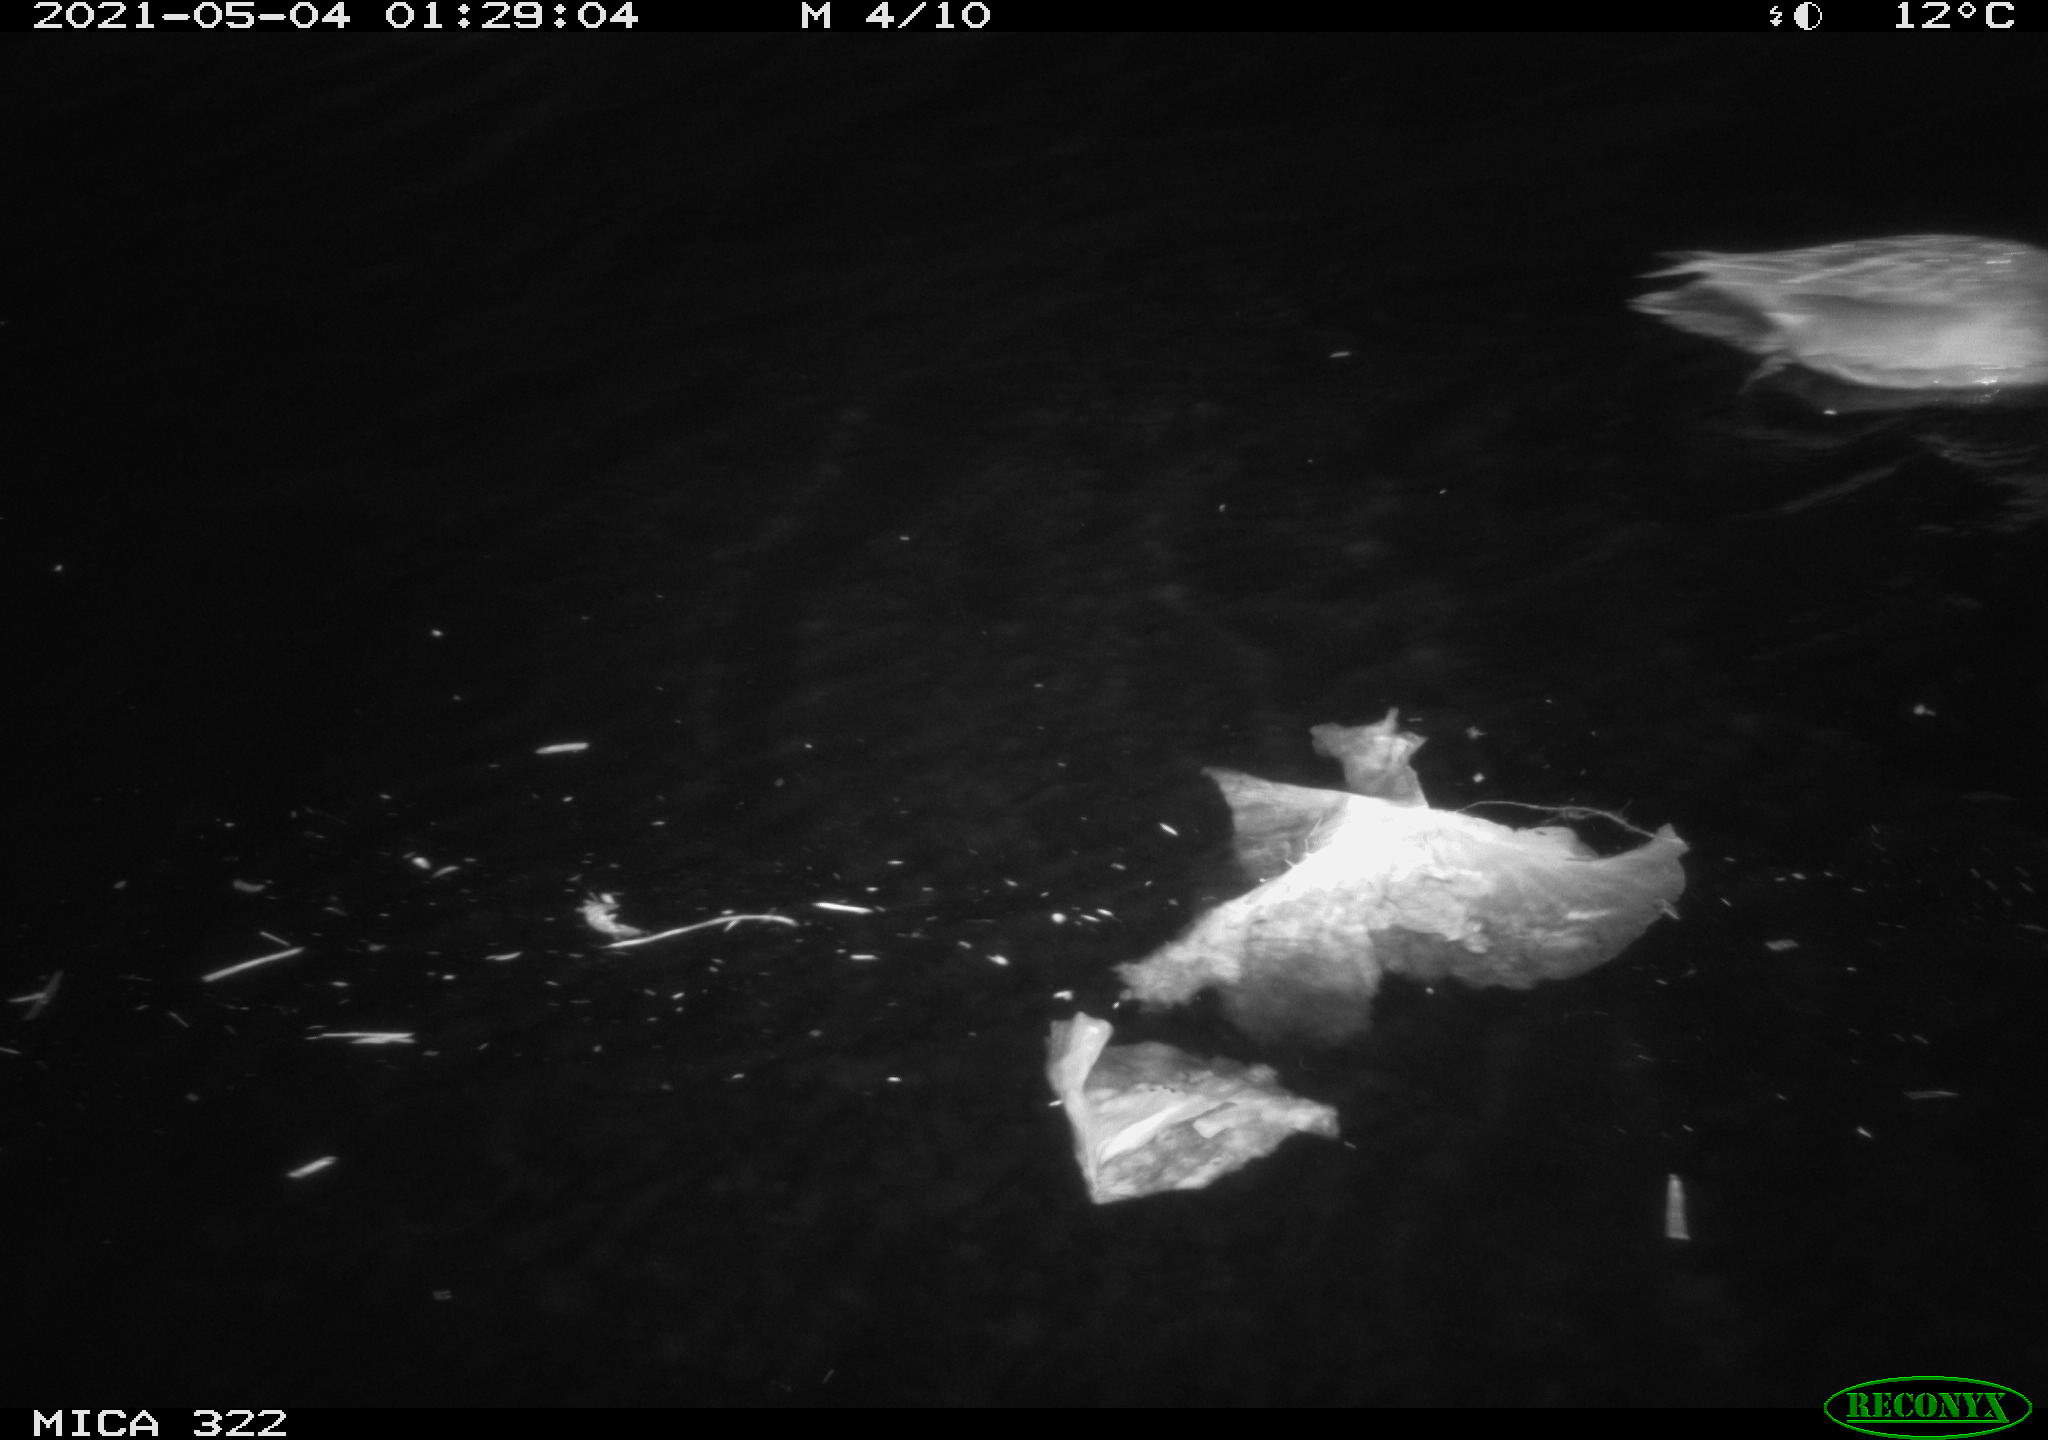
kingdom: Animalia
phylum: Chordata
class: Aves
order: Anseriformes
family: Anatidae
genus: Mareca
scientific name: Mareca strepera
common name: Gadwall
